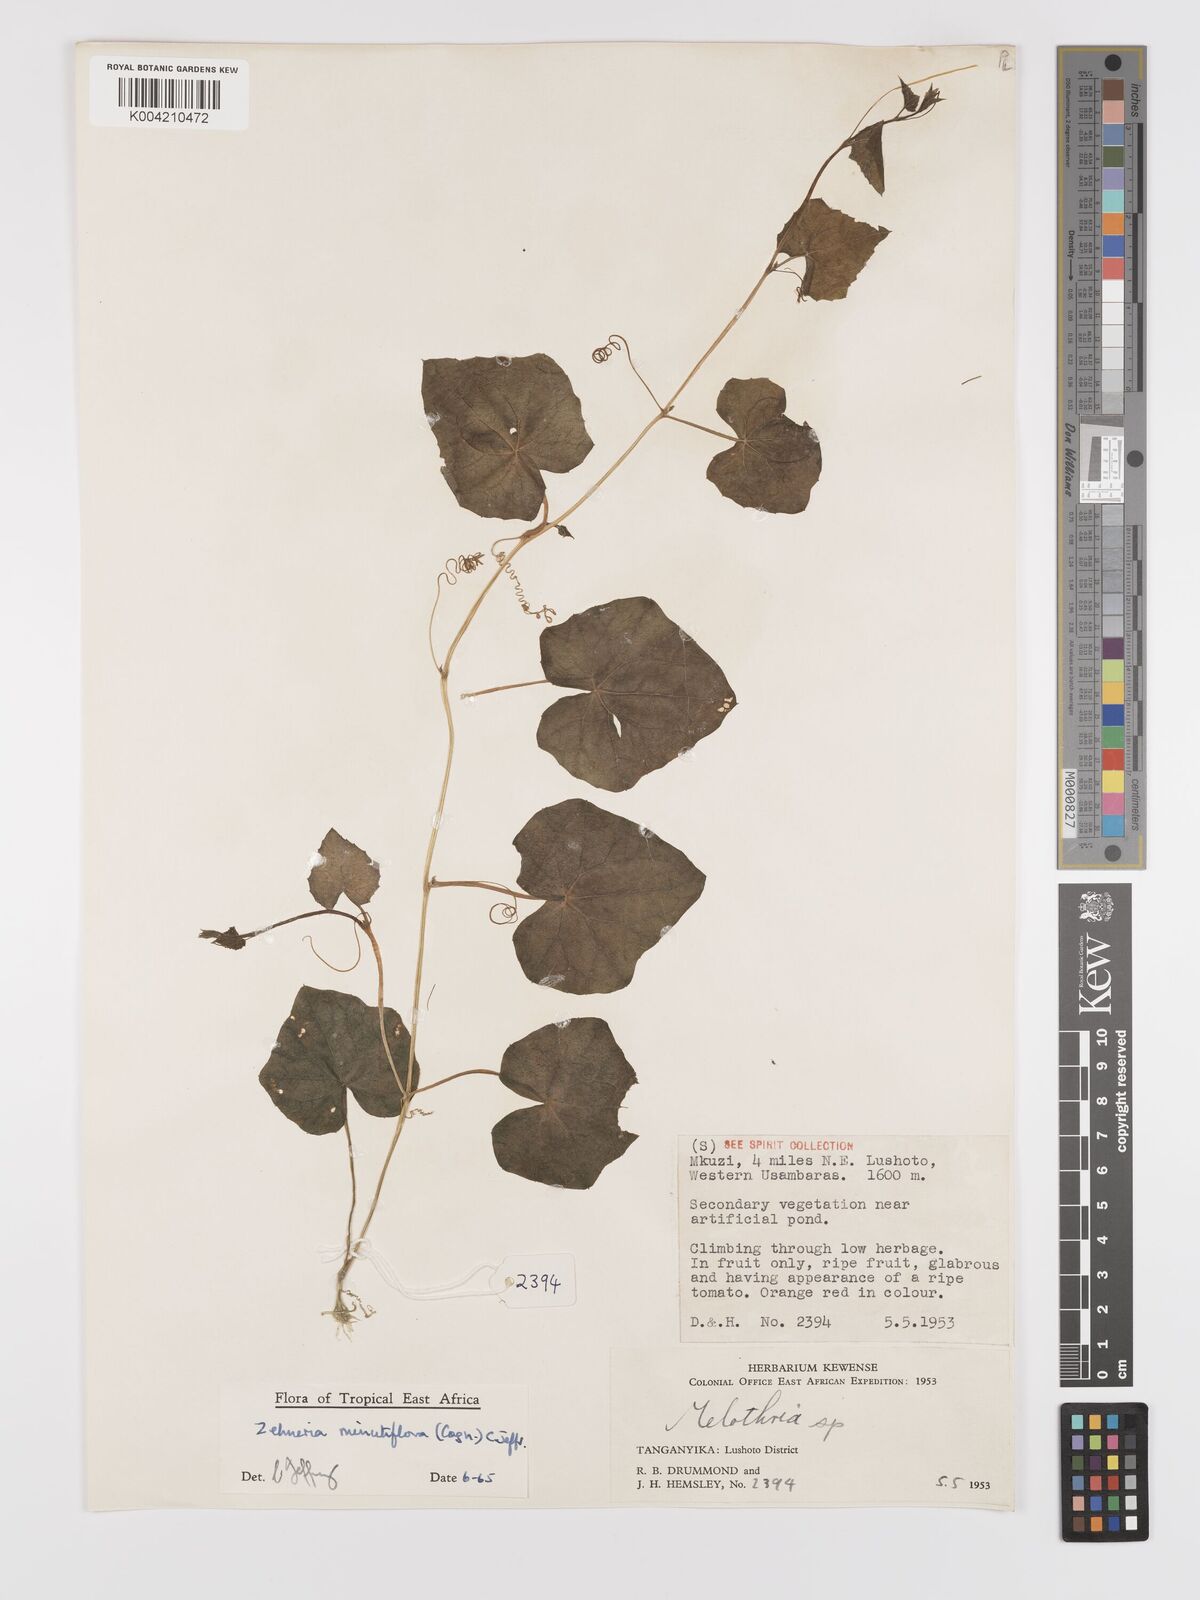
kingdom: Plantae
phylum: Tracheophyta
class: Magnoliopsida
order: Cucurbitales
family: Cucurbitaceae
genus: Zehneria
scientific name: Zehneria minutiflora
